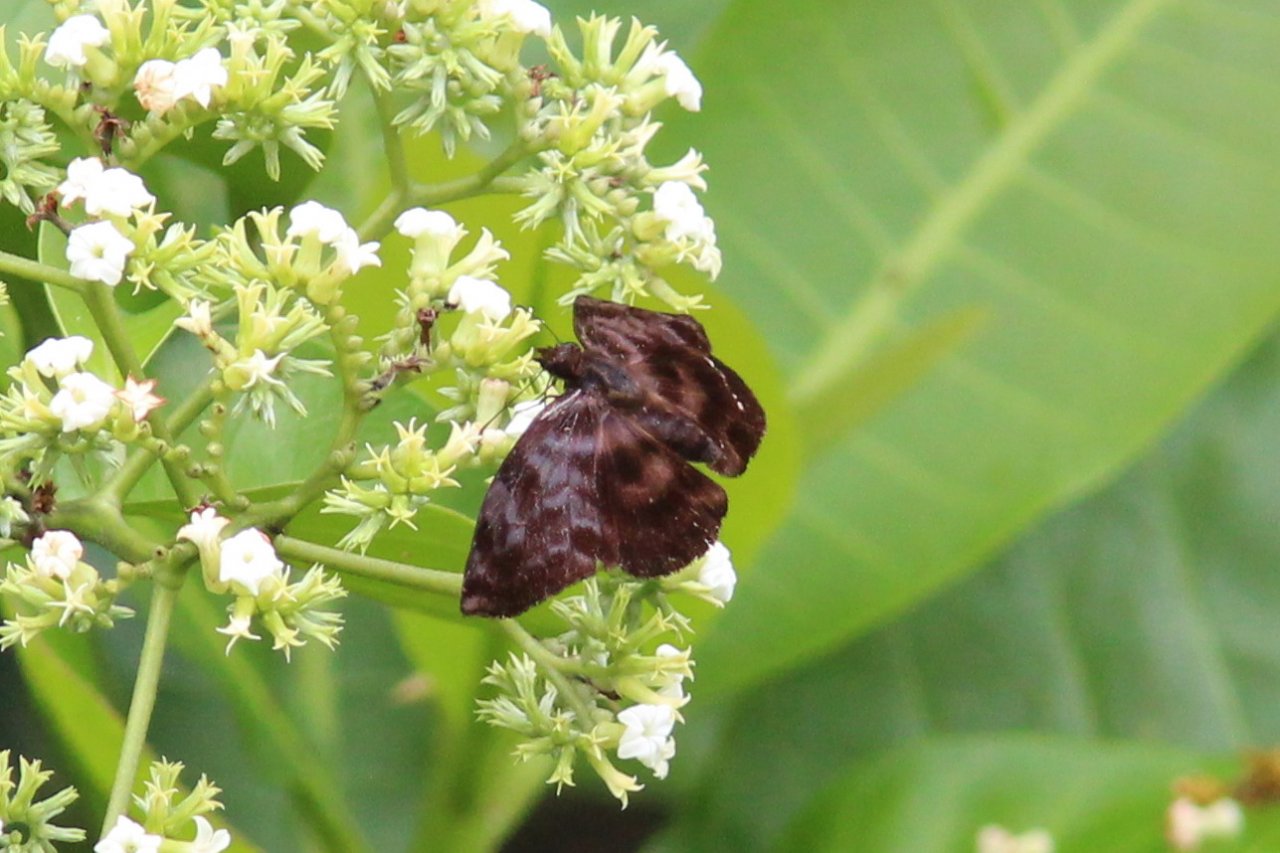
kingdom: Animalia
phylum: Arthropoda
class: Insecta
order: Lepidoptera
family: Hesperiidae
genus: Ebrietas
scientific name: Ebrietas osyris
